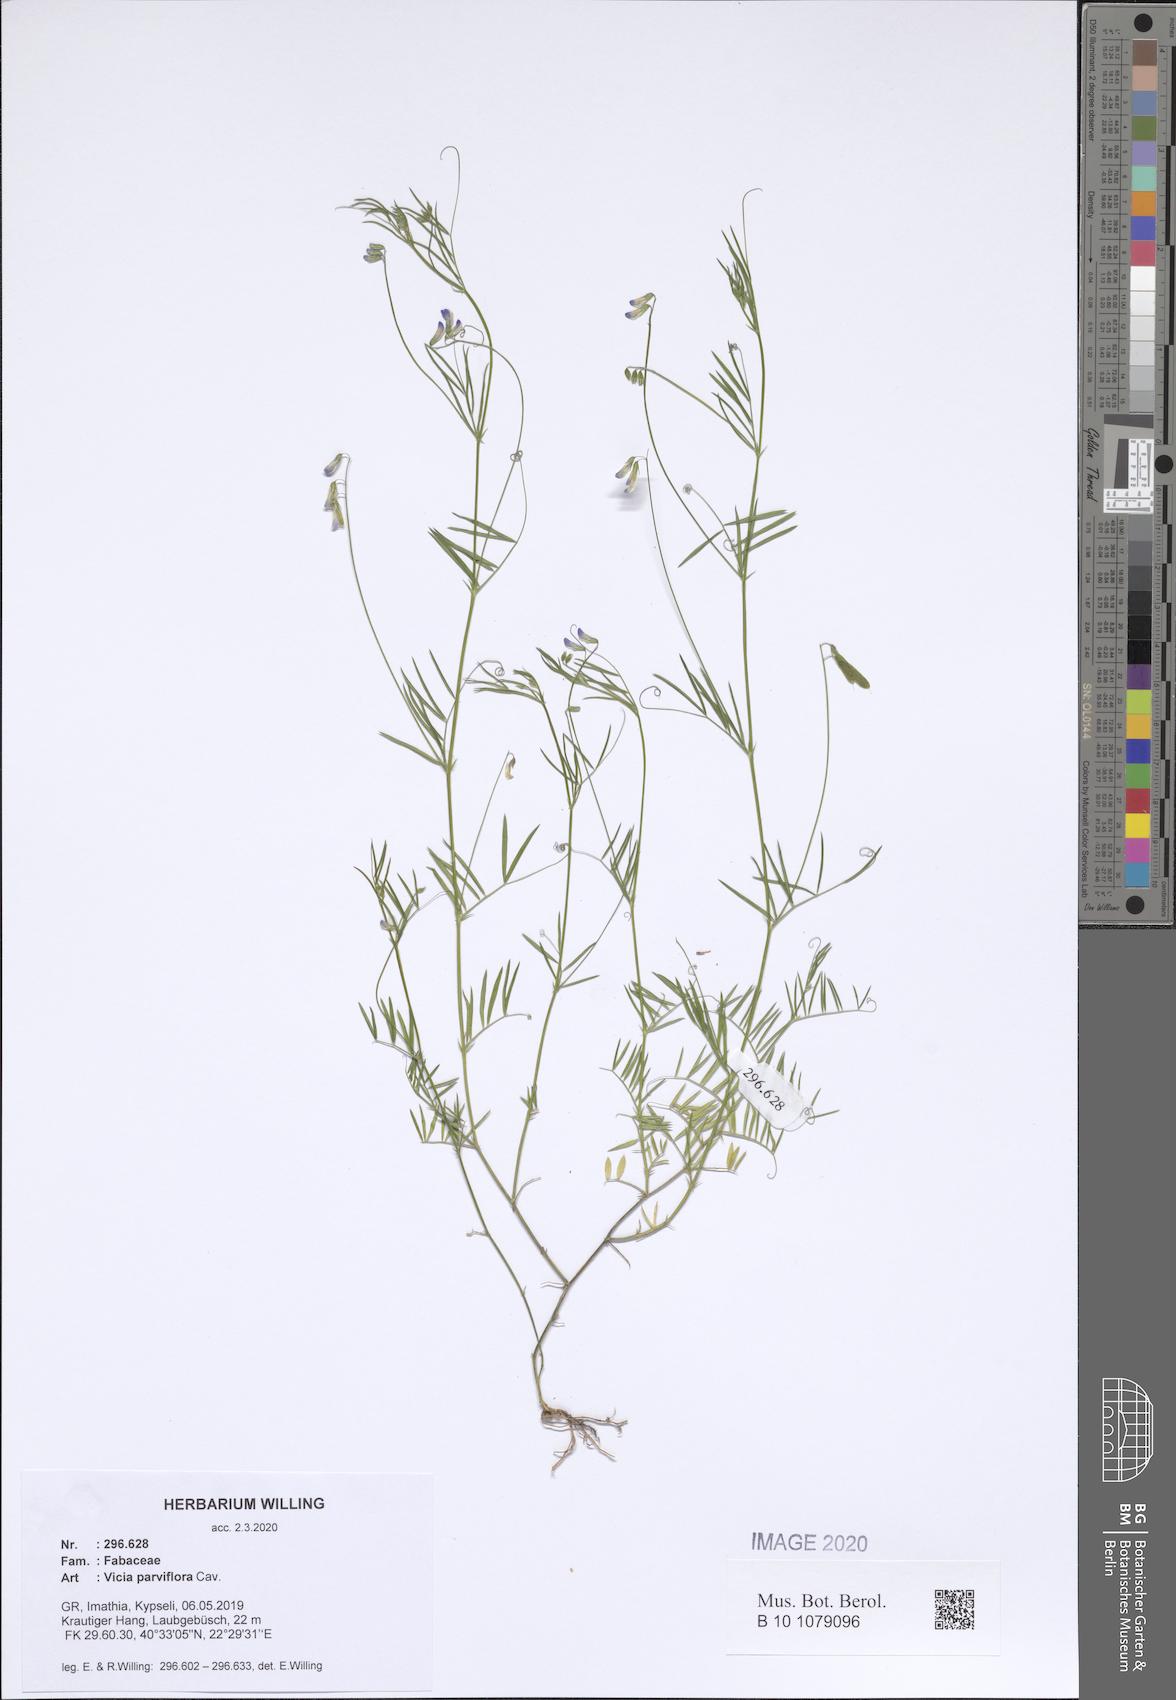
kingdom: Plantae
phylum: Tracheophyta
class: Magnoliopsida
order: Fabales
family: Fabaceae
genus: Vicia
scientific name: Vicia parviflora
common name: Slender tare
